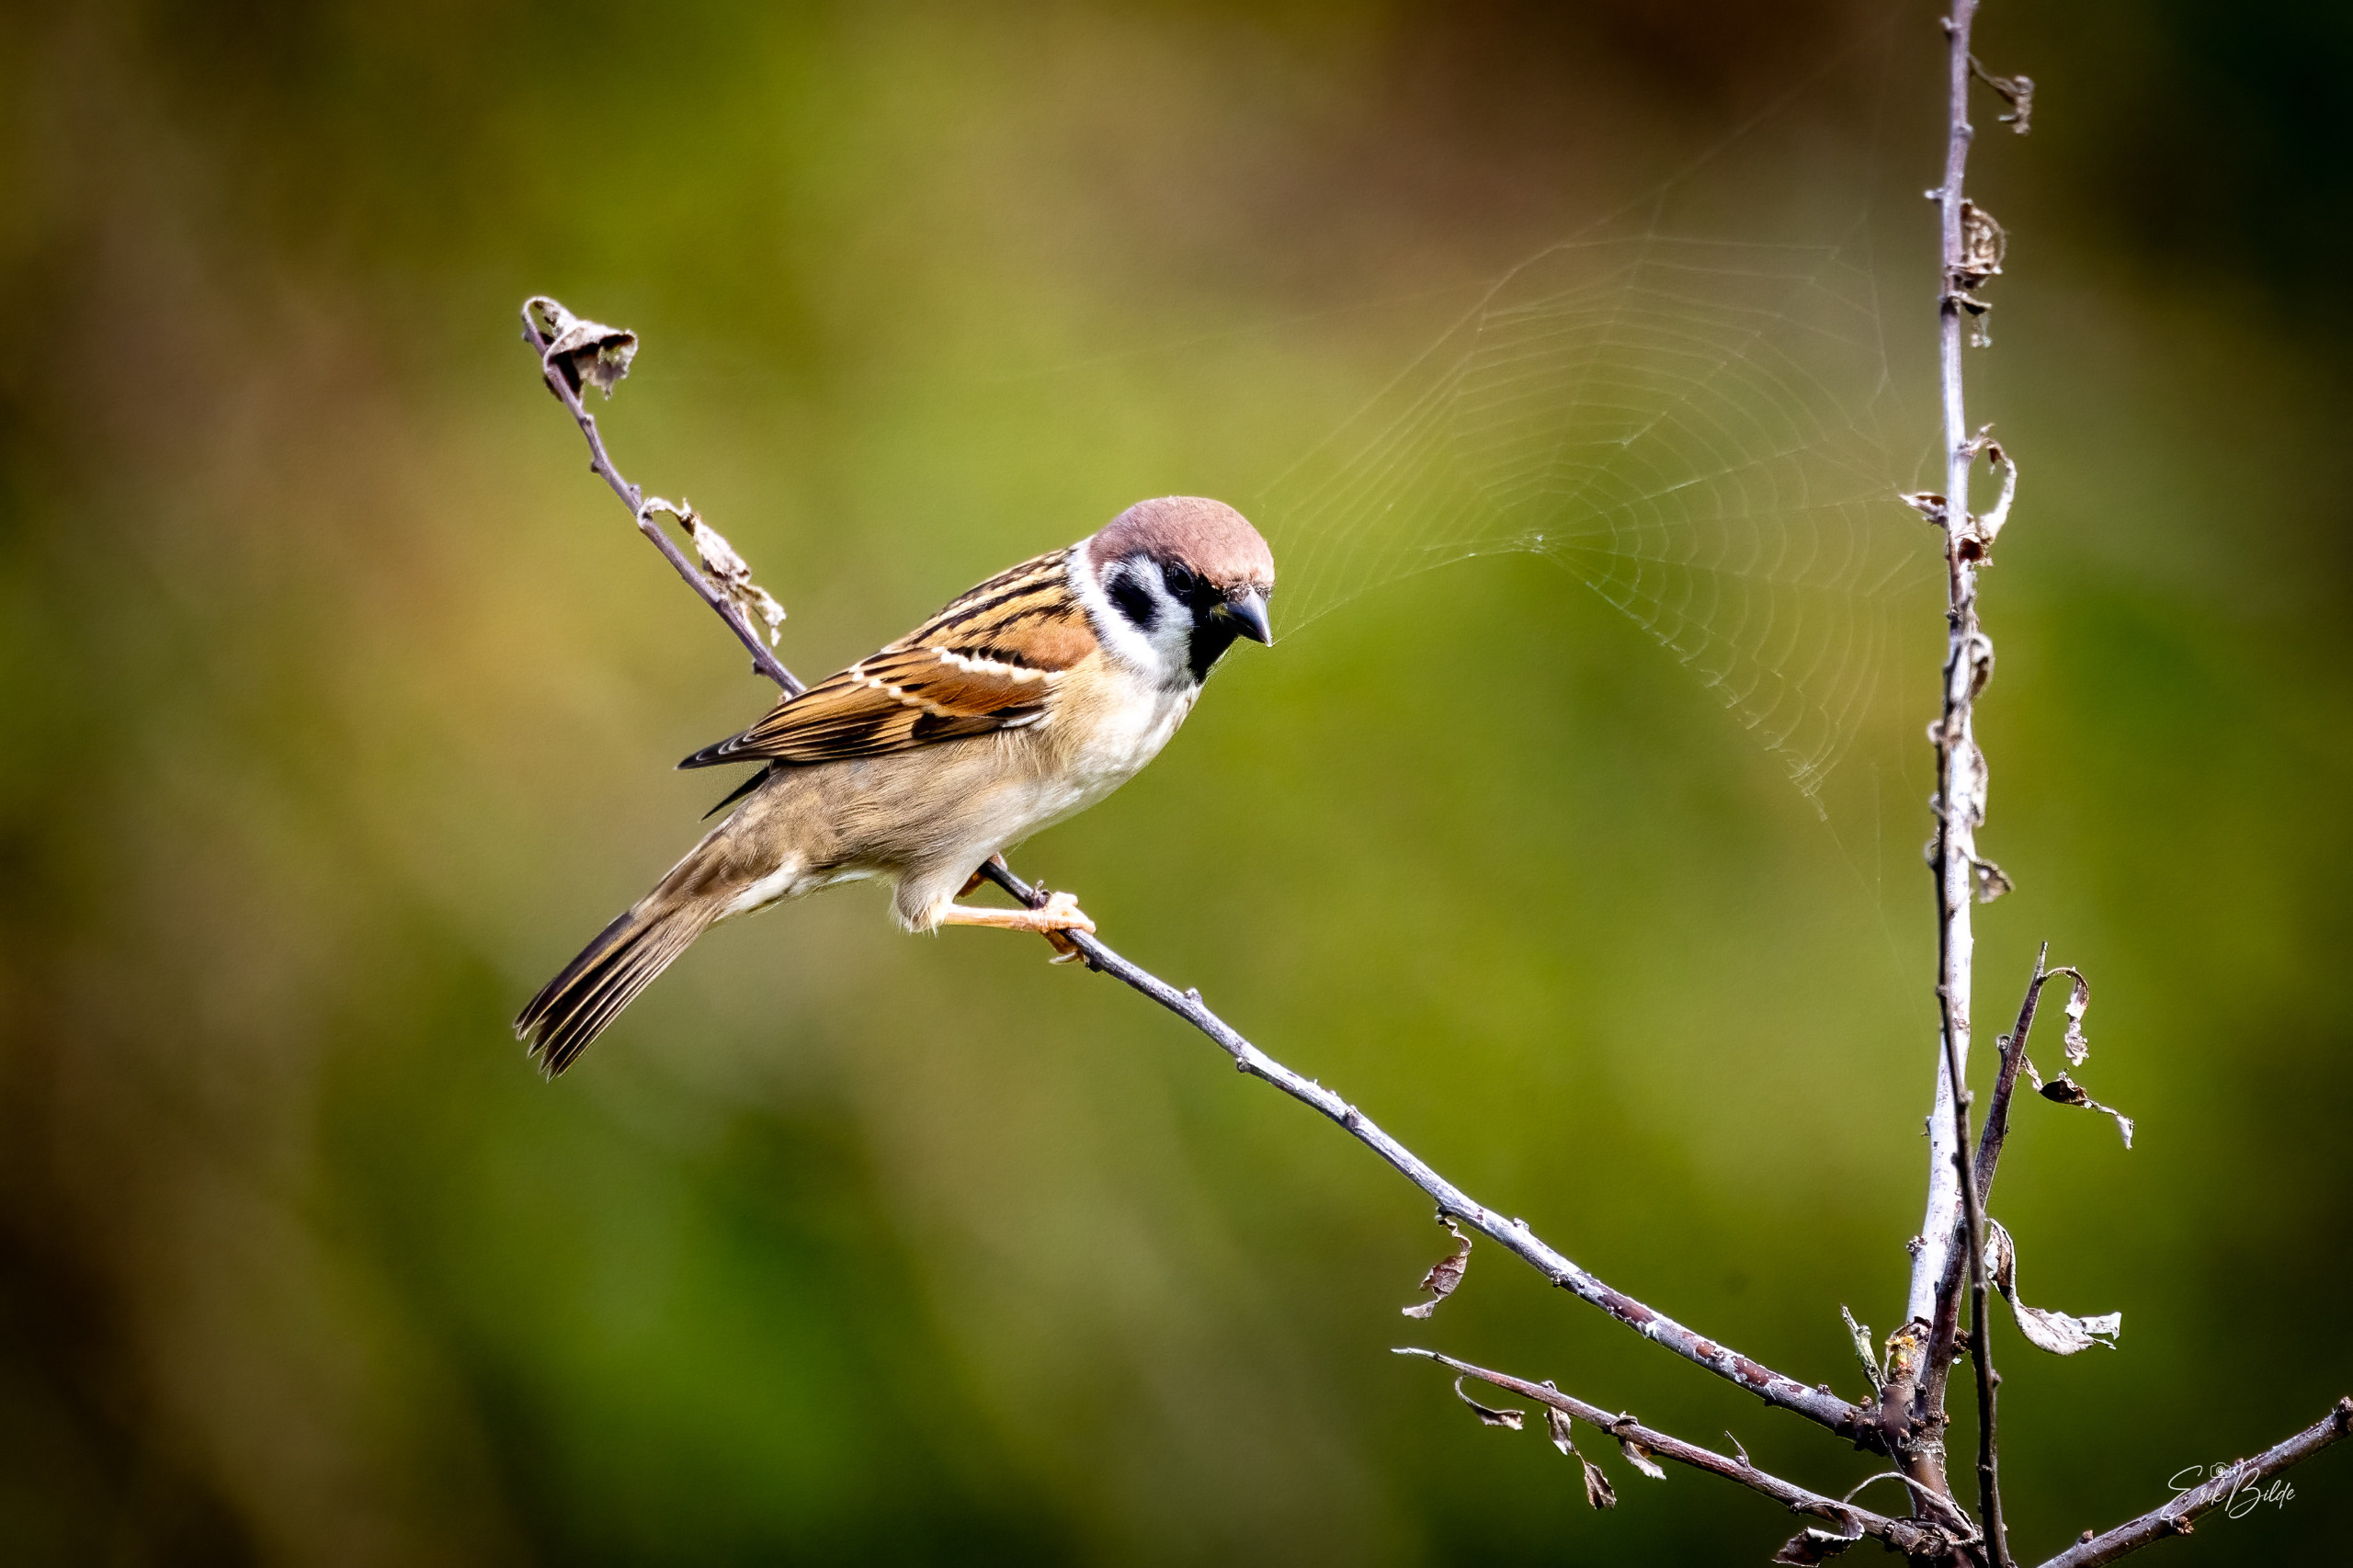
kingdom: Animalia
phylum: Chordata
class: Aves
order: Passeriformes
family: Passeridae
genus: Passer
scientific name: Passer montanus
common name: Skovspurv
